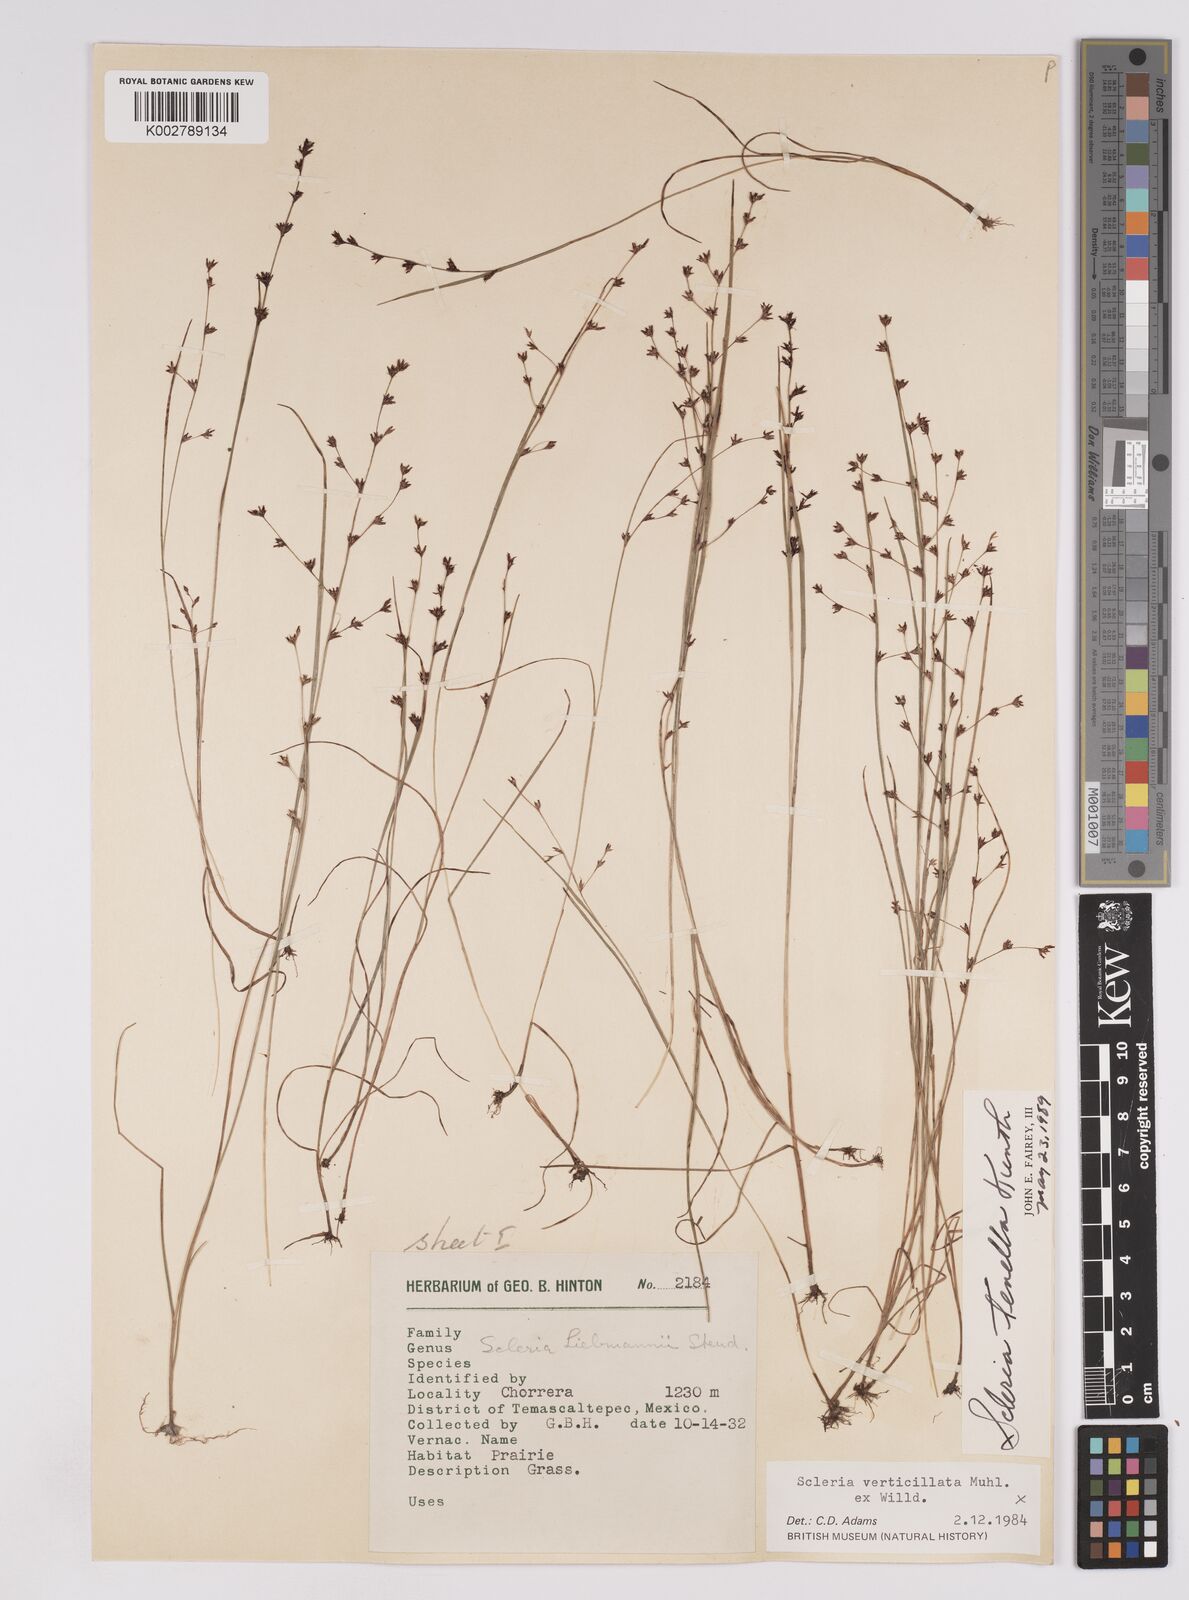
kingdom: Plantae
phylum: Tracheophyta
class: Liliopsida
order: Poales
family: Cyperaceae
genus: Scleria
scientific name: Scleria tenella
